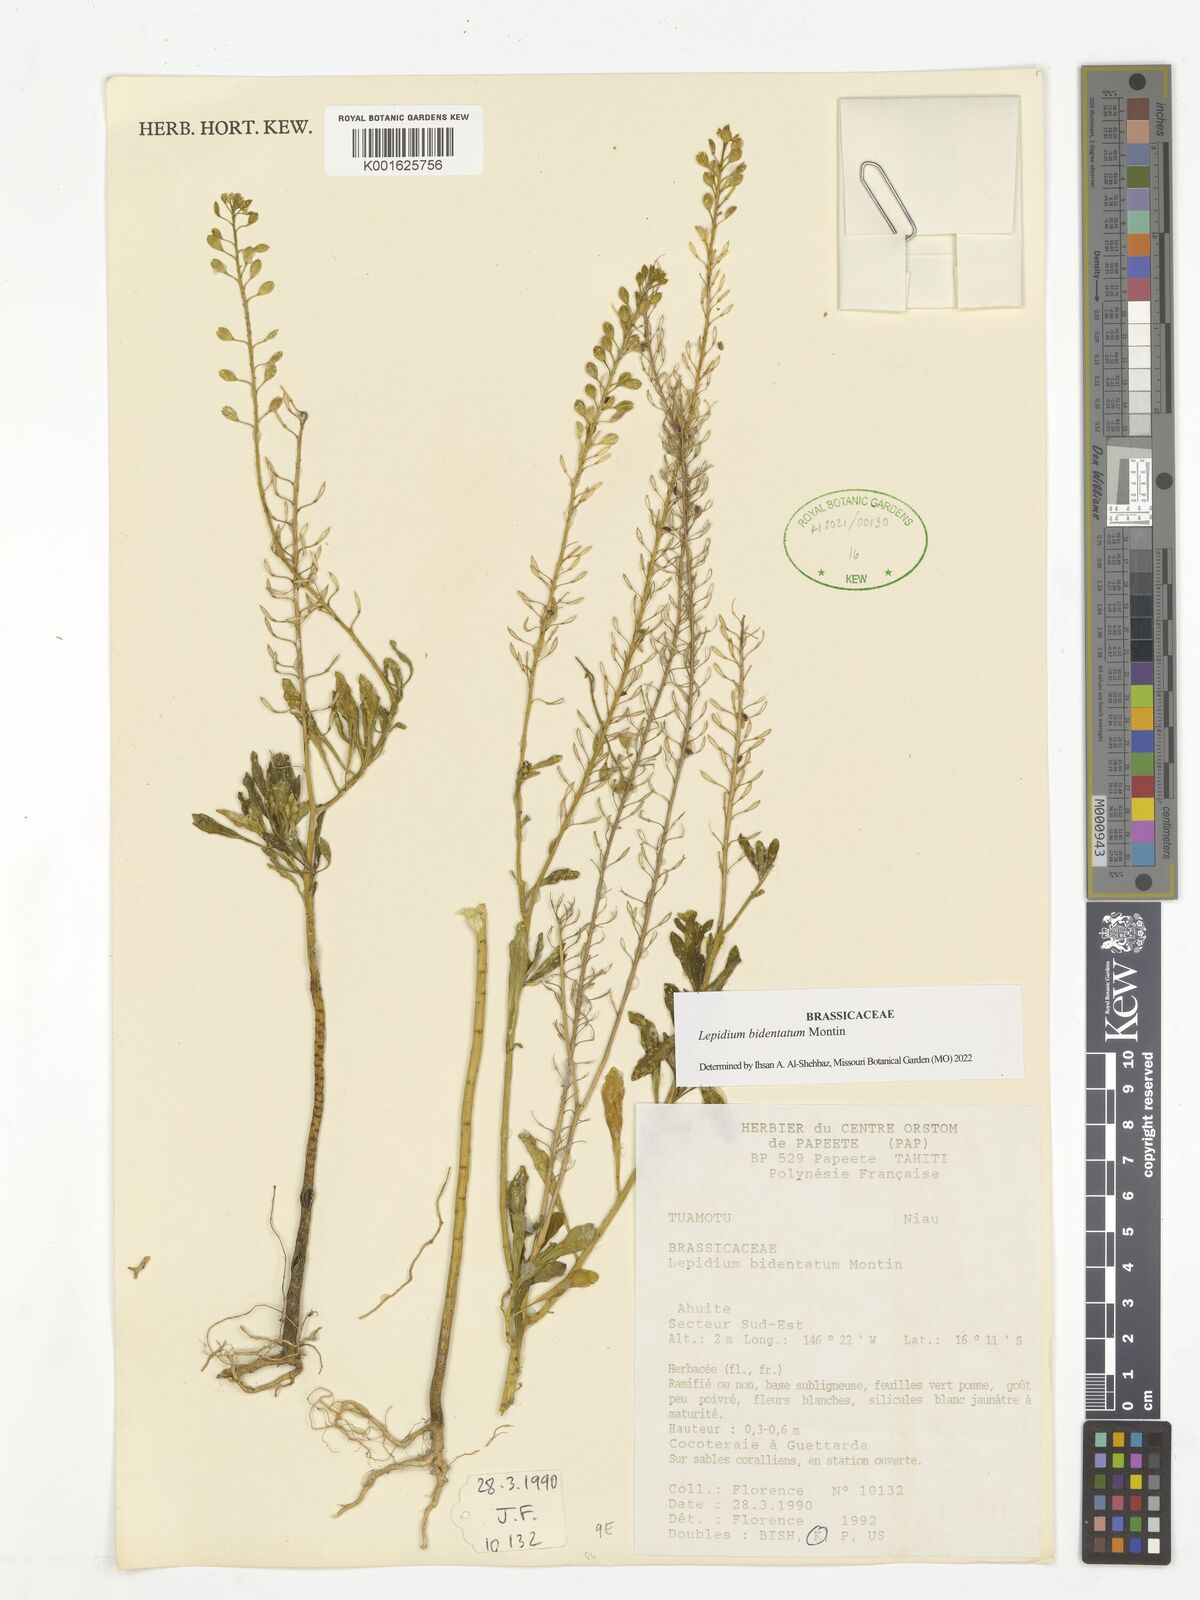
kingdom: Plantae
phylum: Tracheophyta
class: Magnoliopsida
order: Brassicales
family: Brassicaceae
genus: Lepidium
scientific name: Lepidium bidentatum
